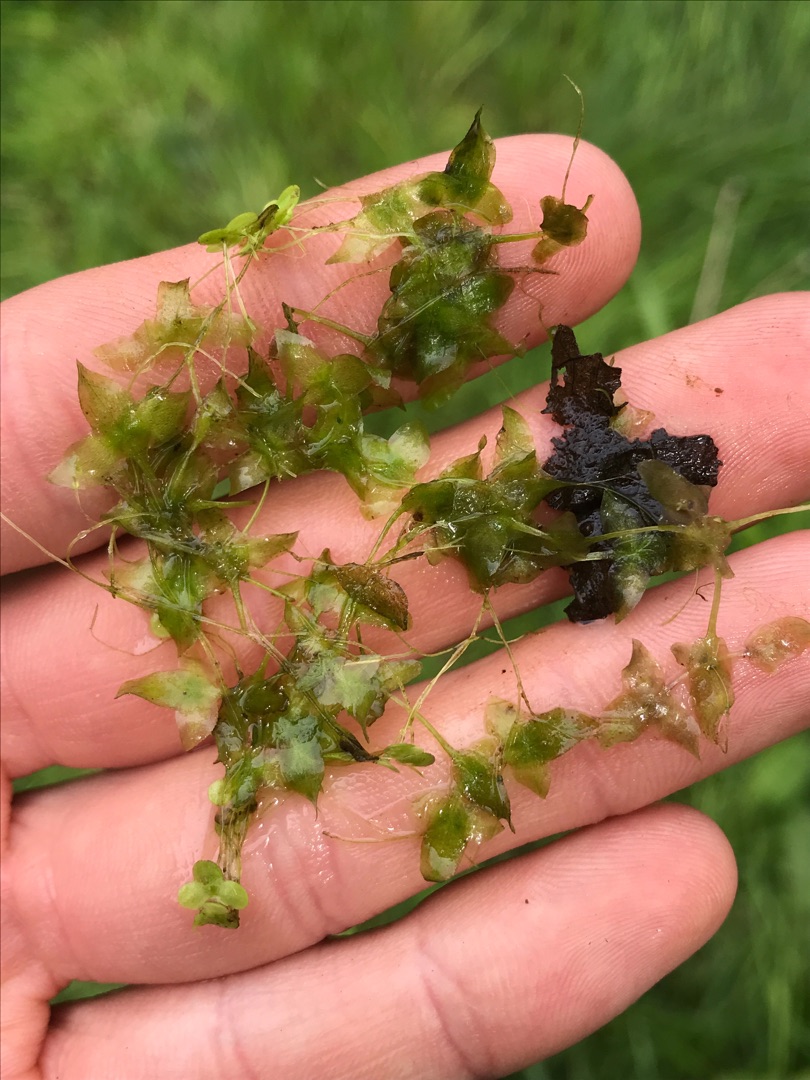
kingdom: Plantae
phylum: Tracheophyta
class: Liliopsida
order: Alismatales
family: Araceae
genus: Lemna
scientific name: Lemna trisulca
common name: Kors-andemad
